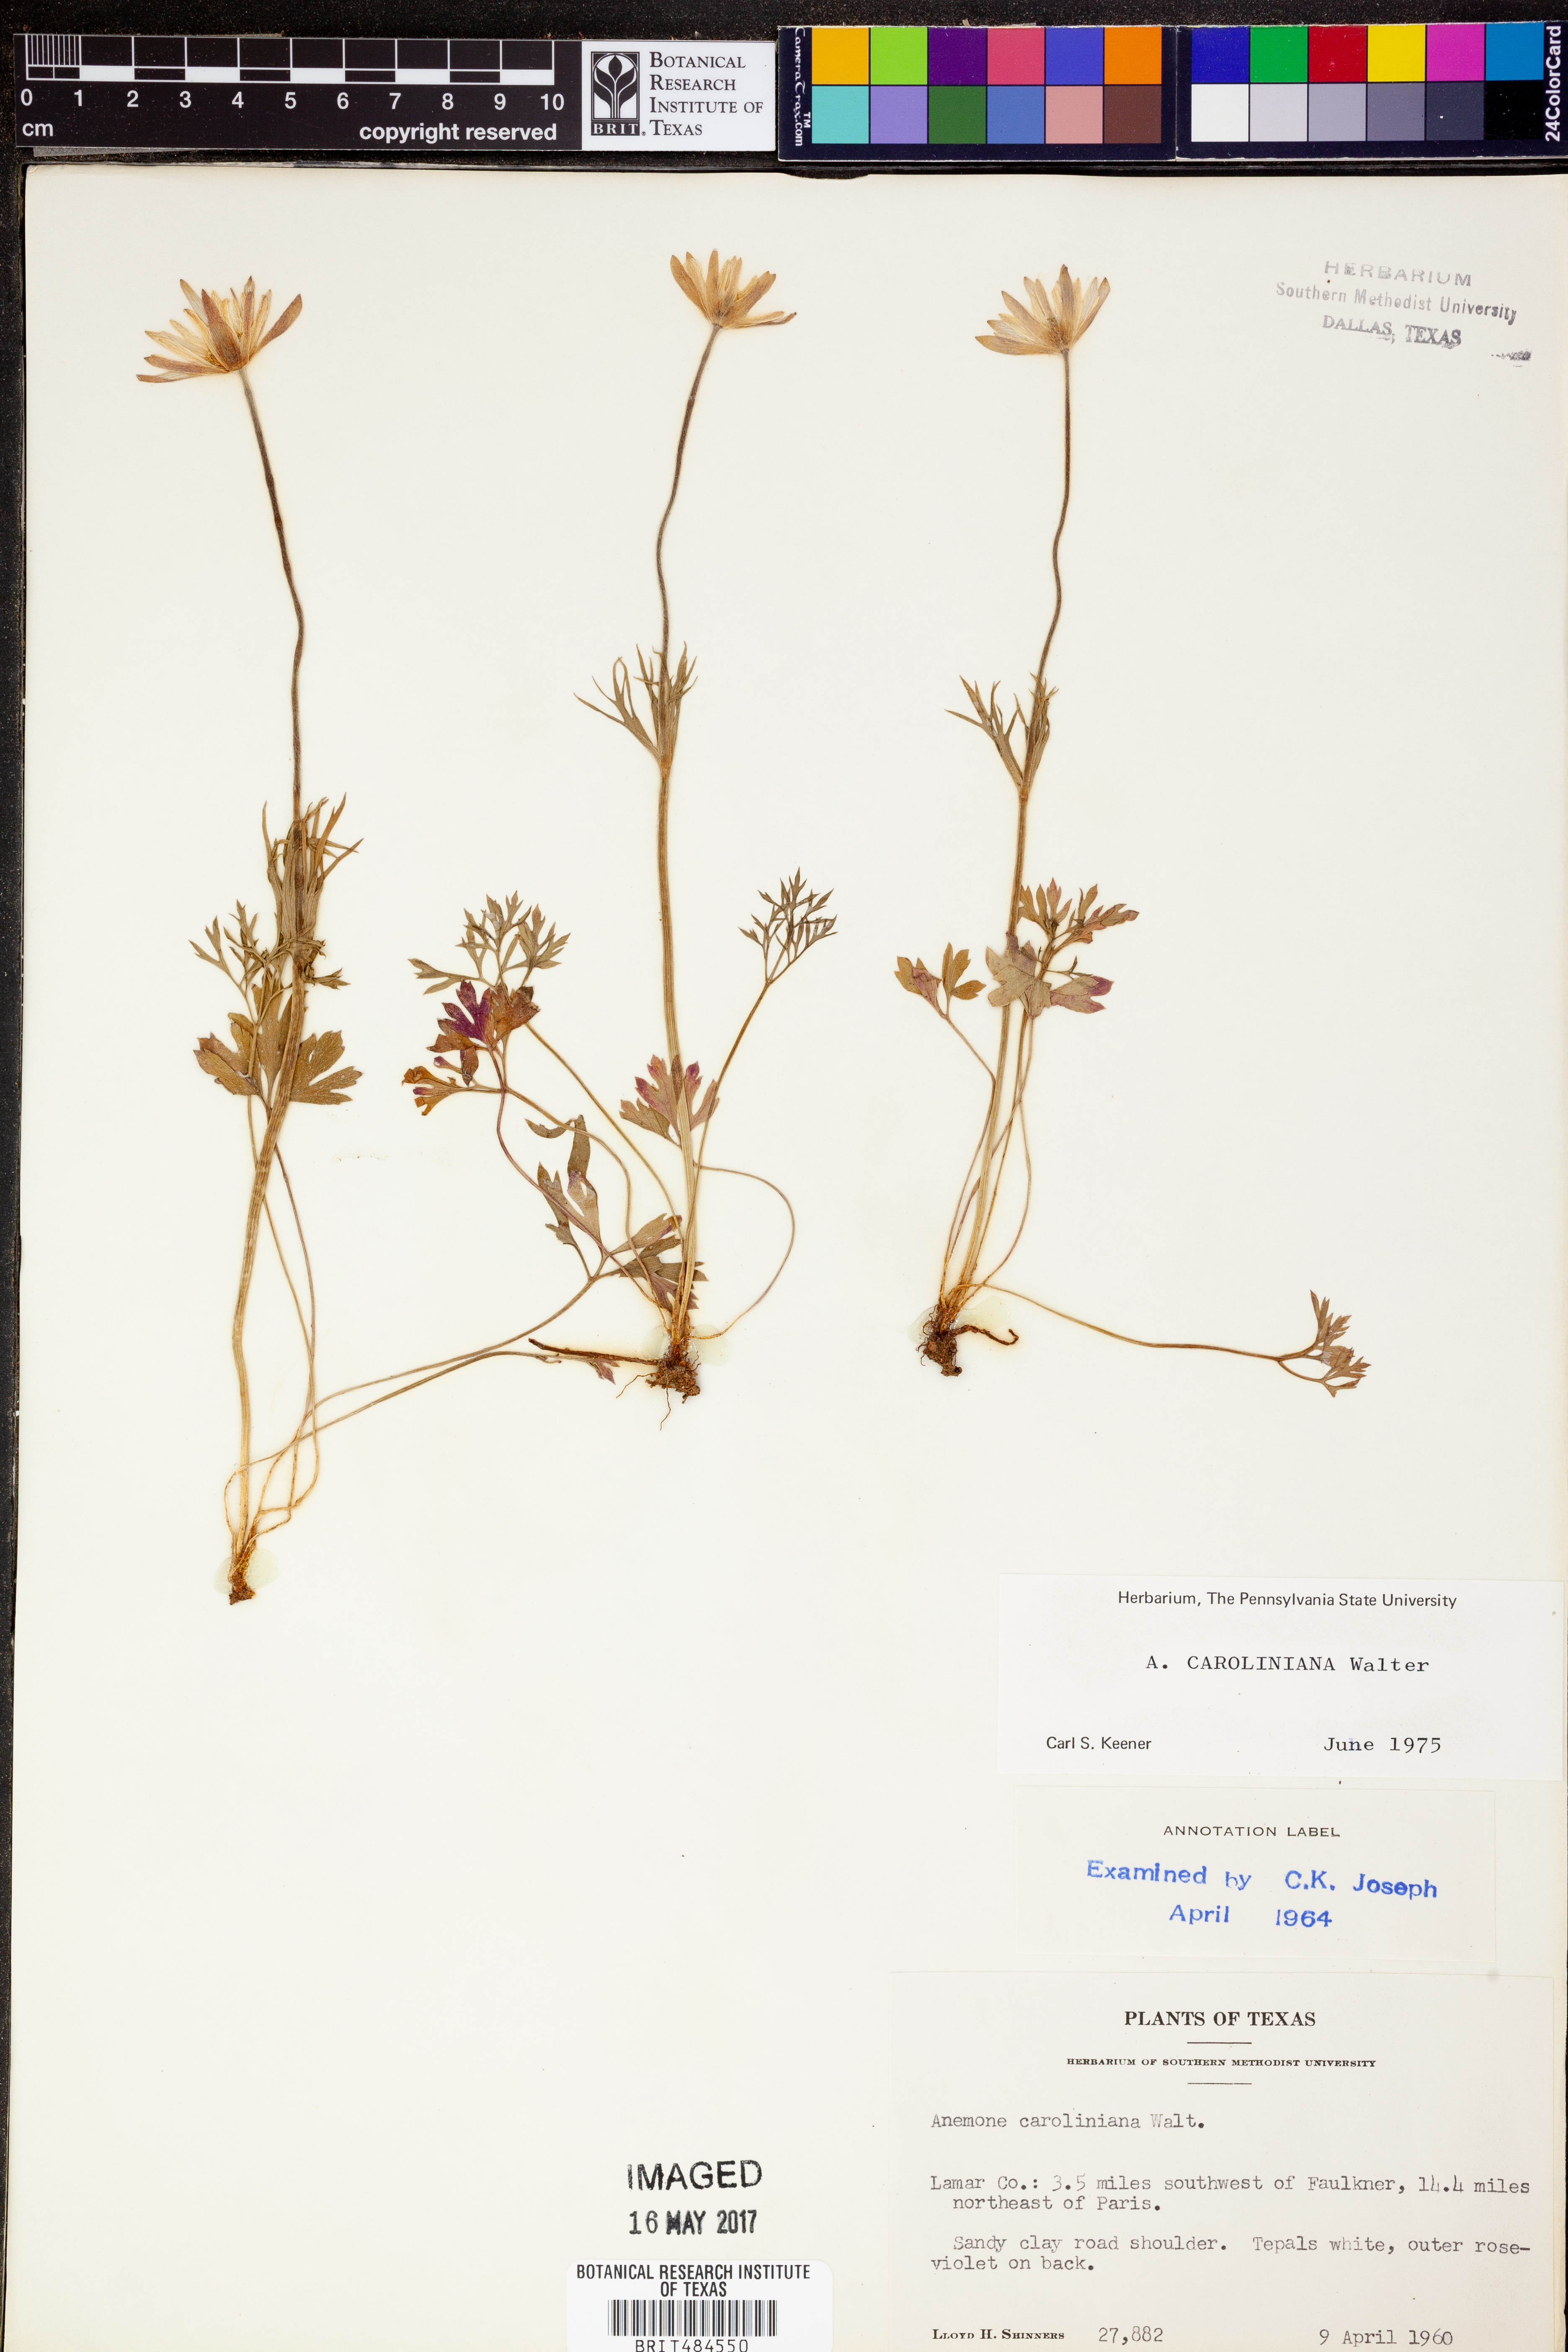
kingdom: Plantae
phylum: Tracheophyta
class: Magnoliopsida
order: Ranunculales
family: Ranunculaceae
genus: Anemone
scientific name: Anemone caroliniana
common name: Carolina anemone
